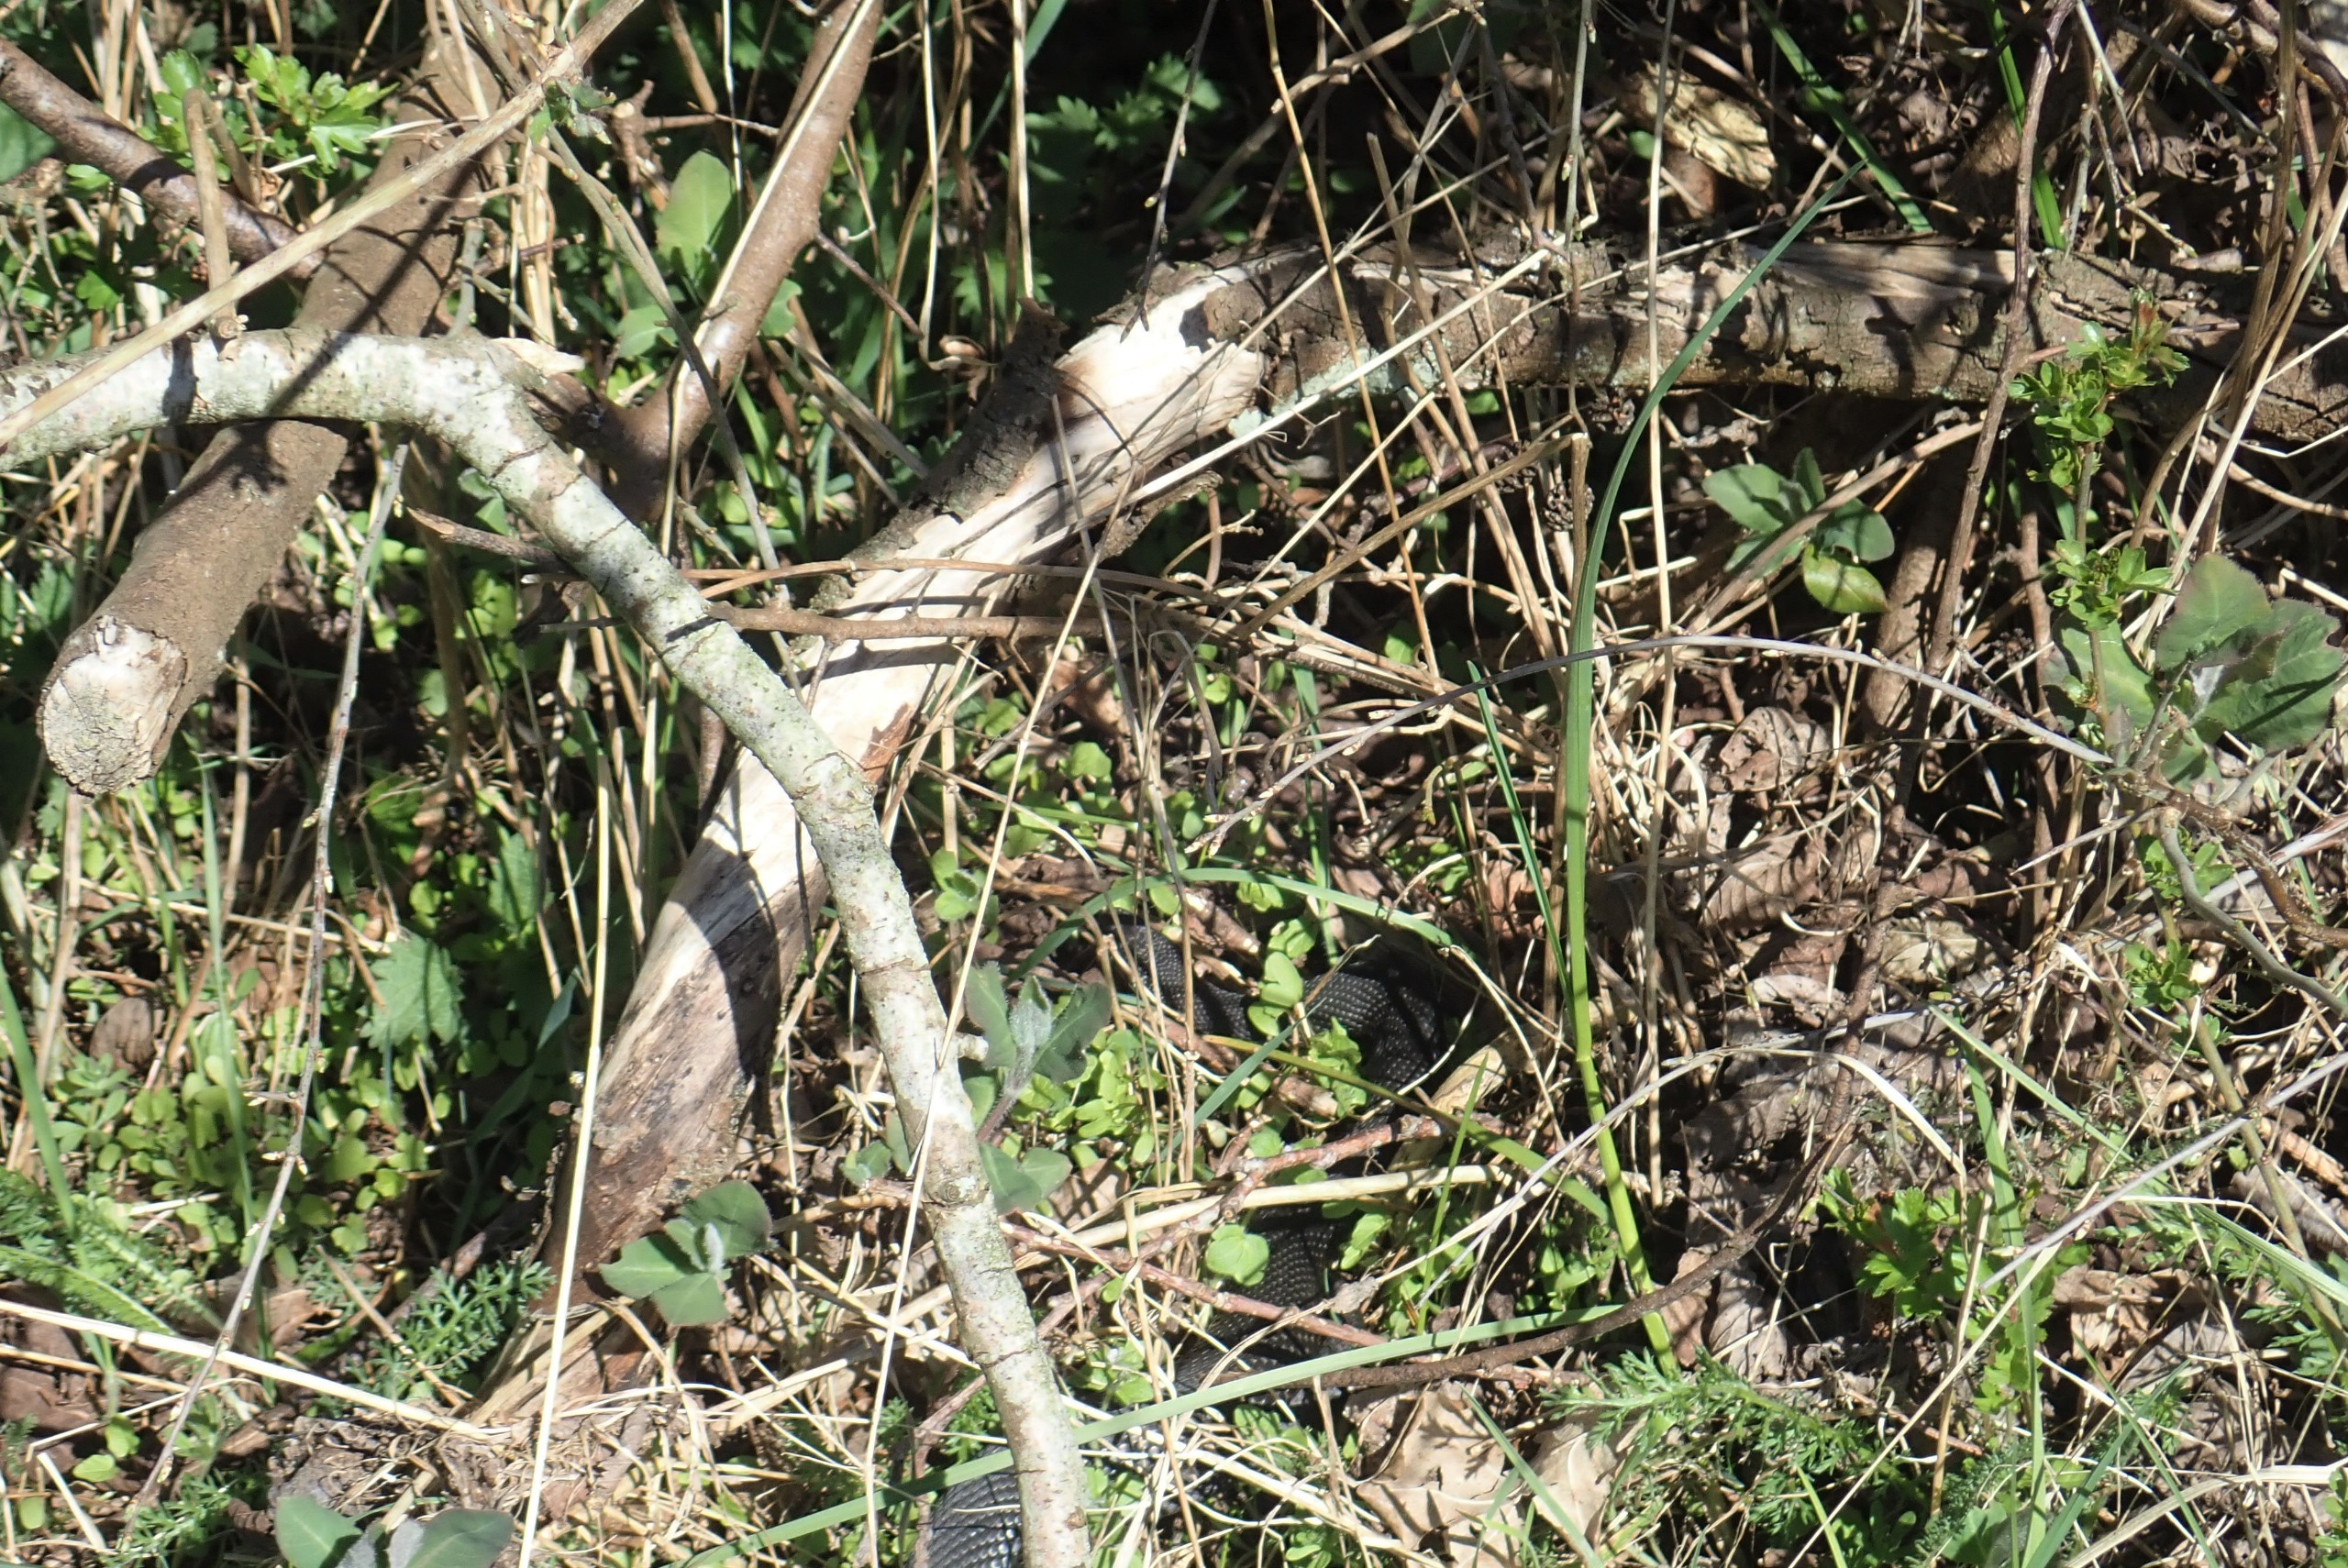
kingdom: Animalia
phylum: Chordata
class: Squamata
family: Viperidae
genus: Vipera
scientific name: Vipera berus
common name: Hugorm
